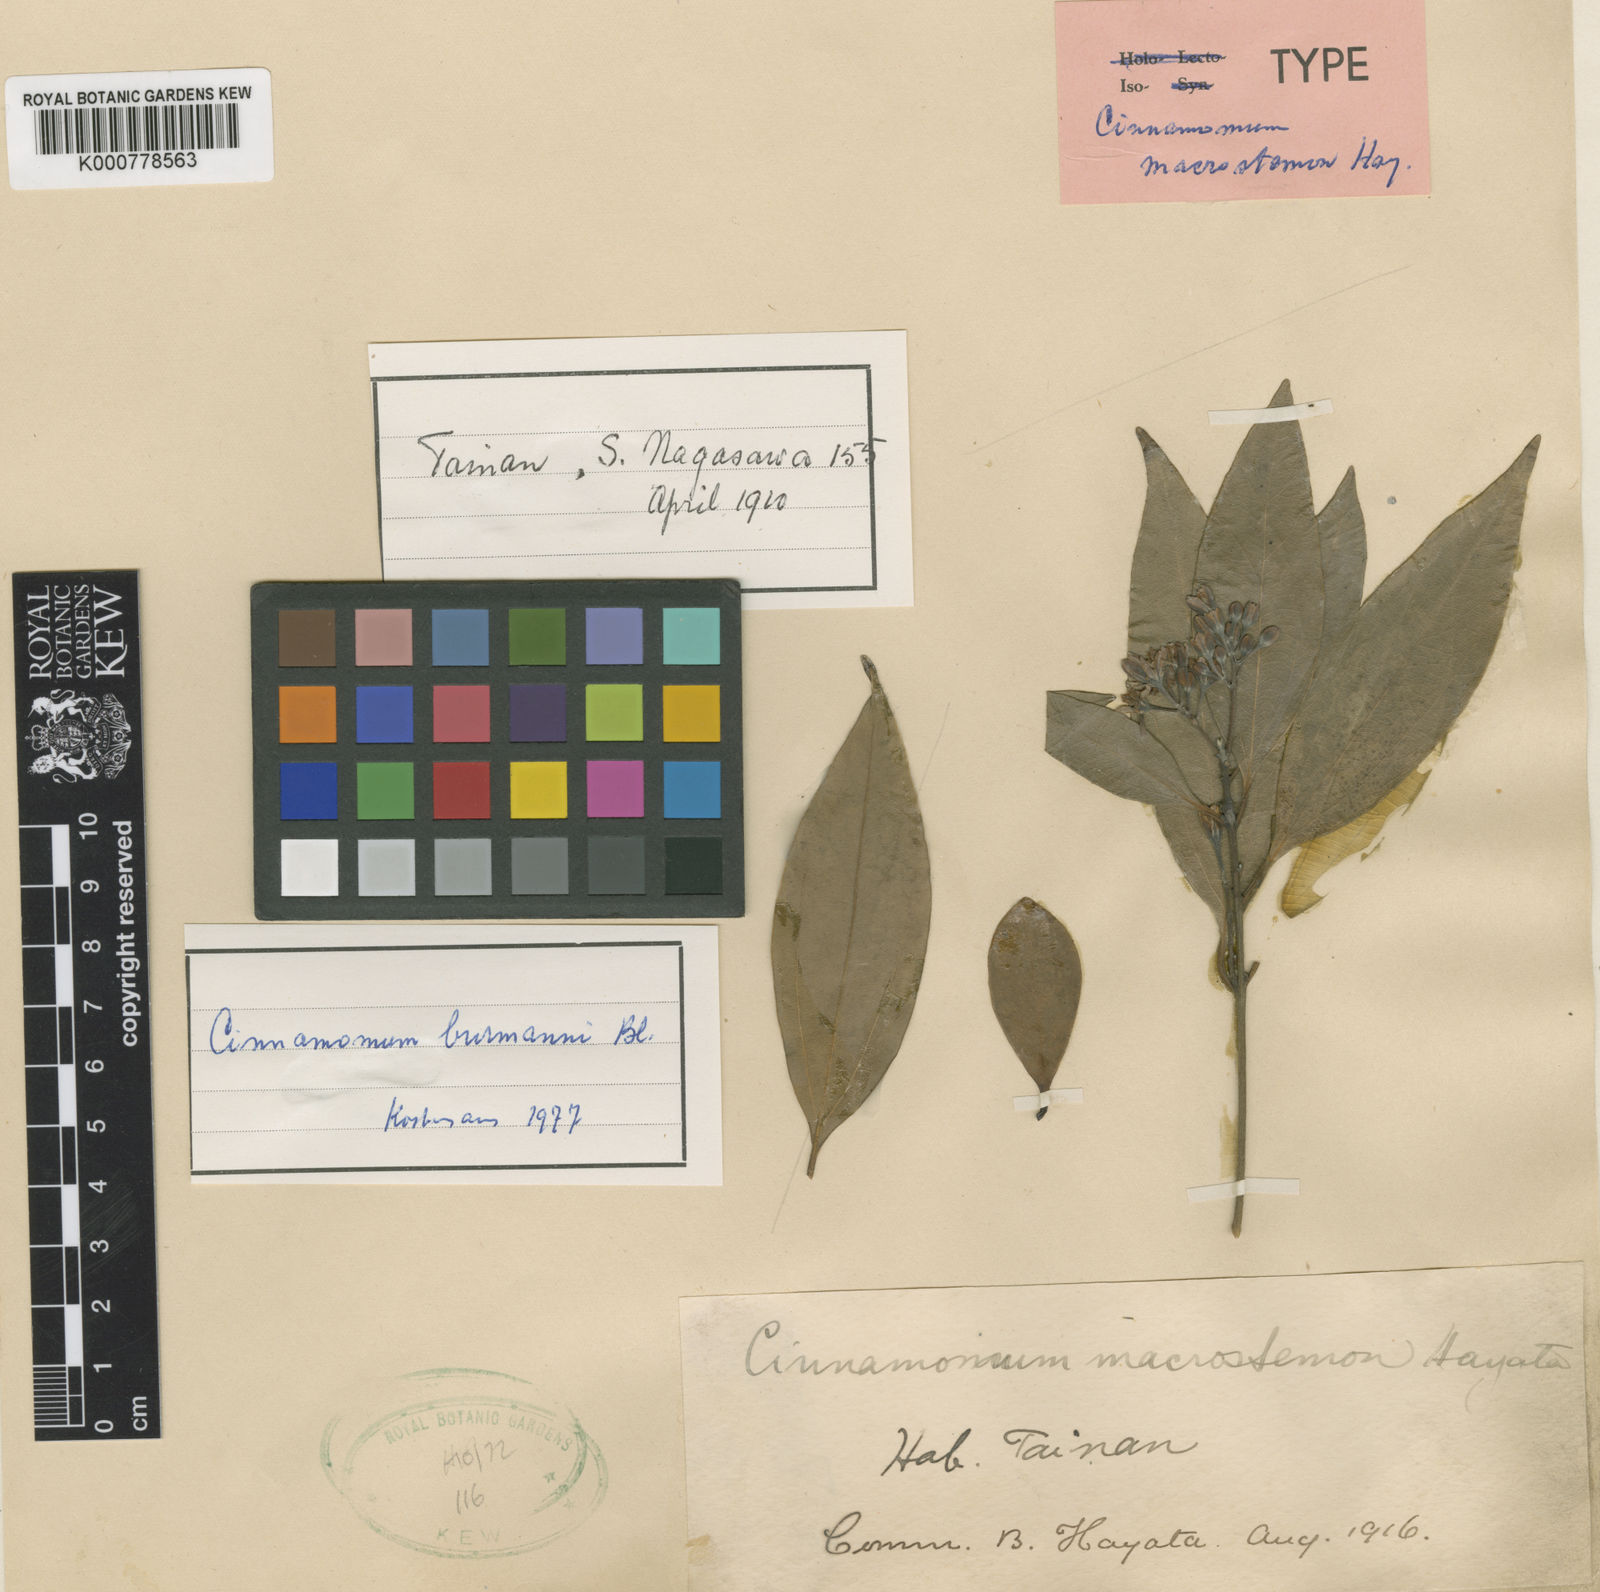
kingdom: Plantae
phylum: Tracheophyta
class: Magnoliopsida
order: Laurales
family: Lauraceae
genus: Cinnamomum
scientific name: Cinnamomum burmanni
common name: Padang cassia
